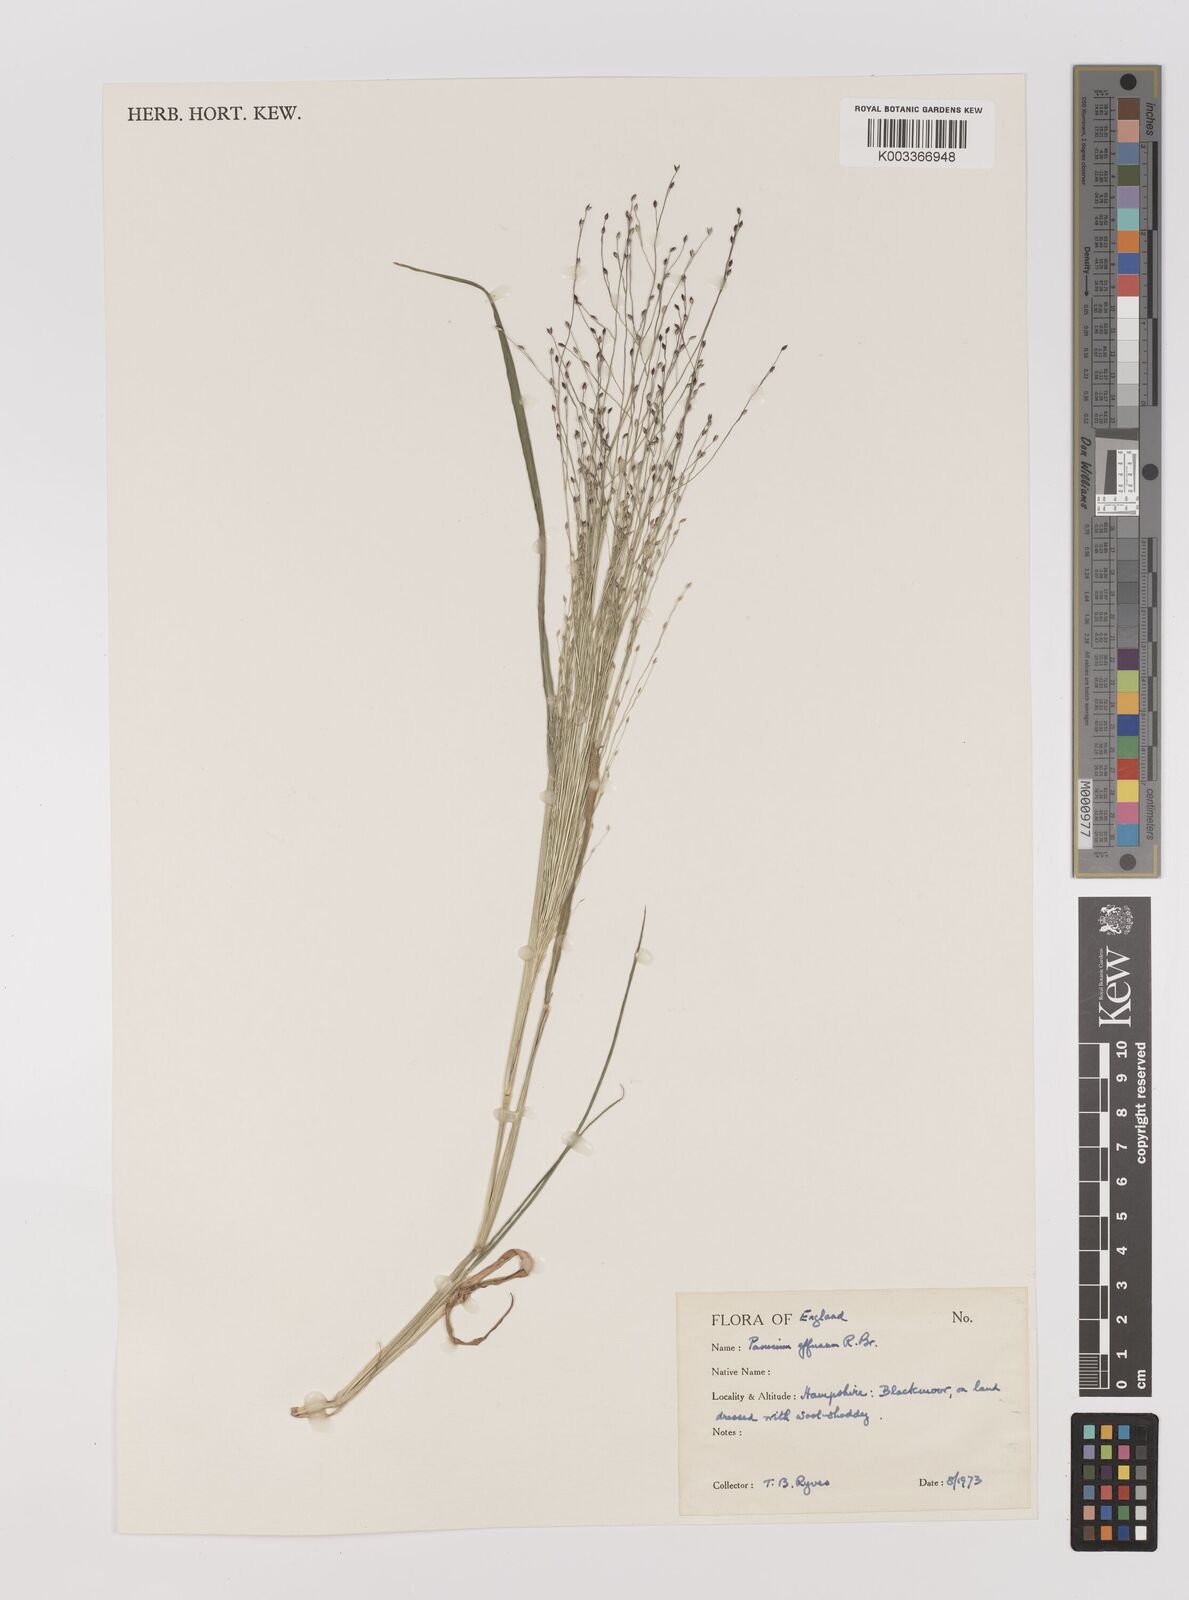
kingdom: Plantae
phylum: Tracheophyta
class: Liliopsida
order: Poales
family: Poaceae
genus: Panicum
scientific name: Panicum effusum
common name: Hairy panic grass
